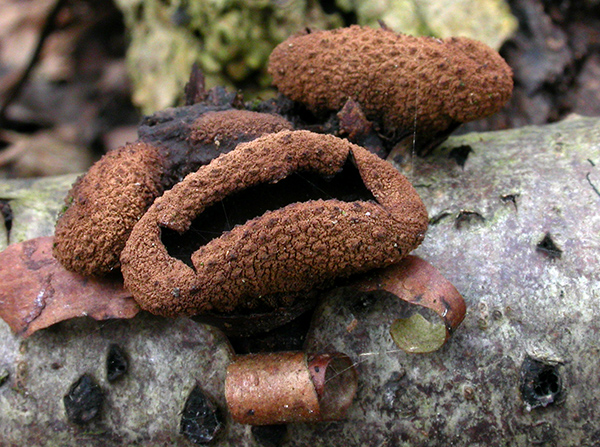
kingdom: Fungi
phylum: Ascomycota
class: Leotiomycetes
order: Helotiales
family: Cenangiaceae
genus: Encoelia
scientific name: Encoelia furfuracea
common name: hassel-læderskive
